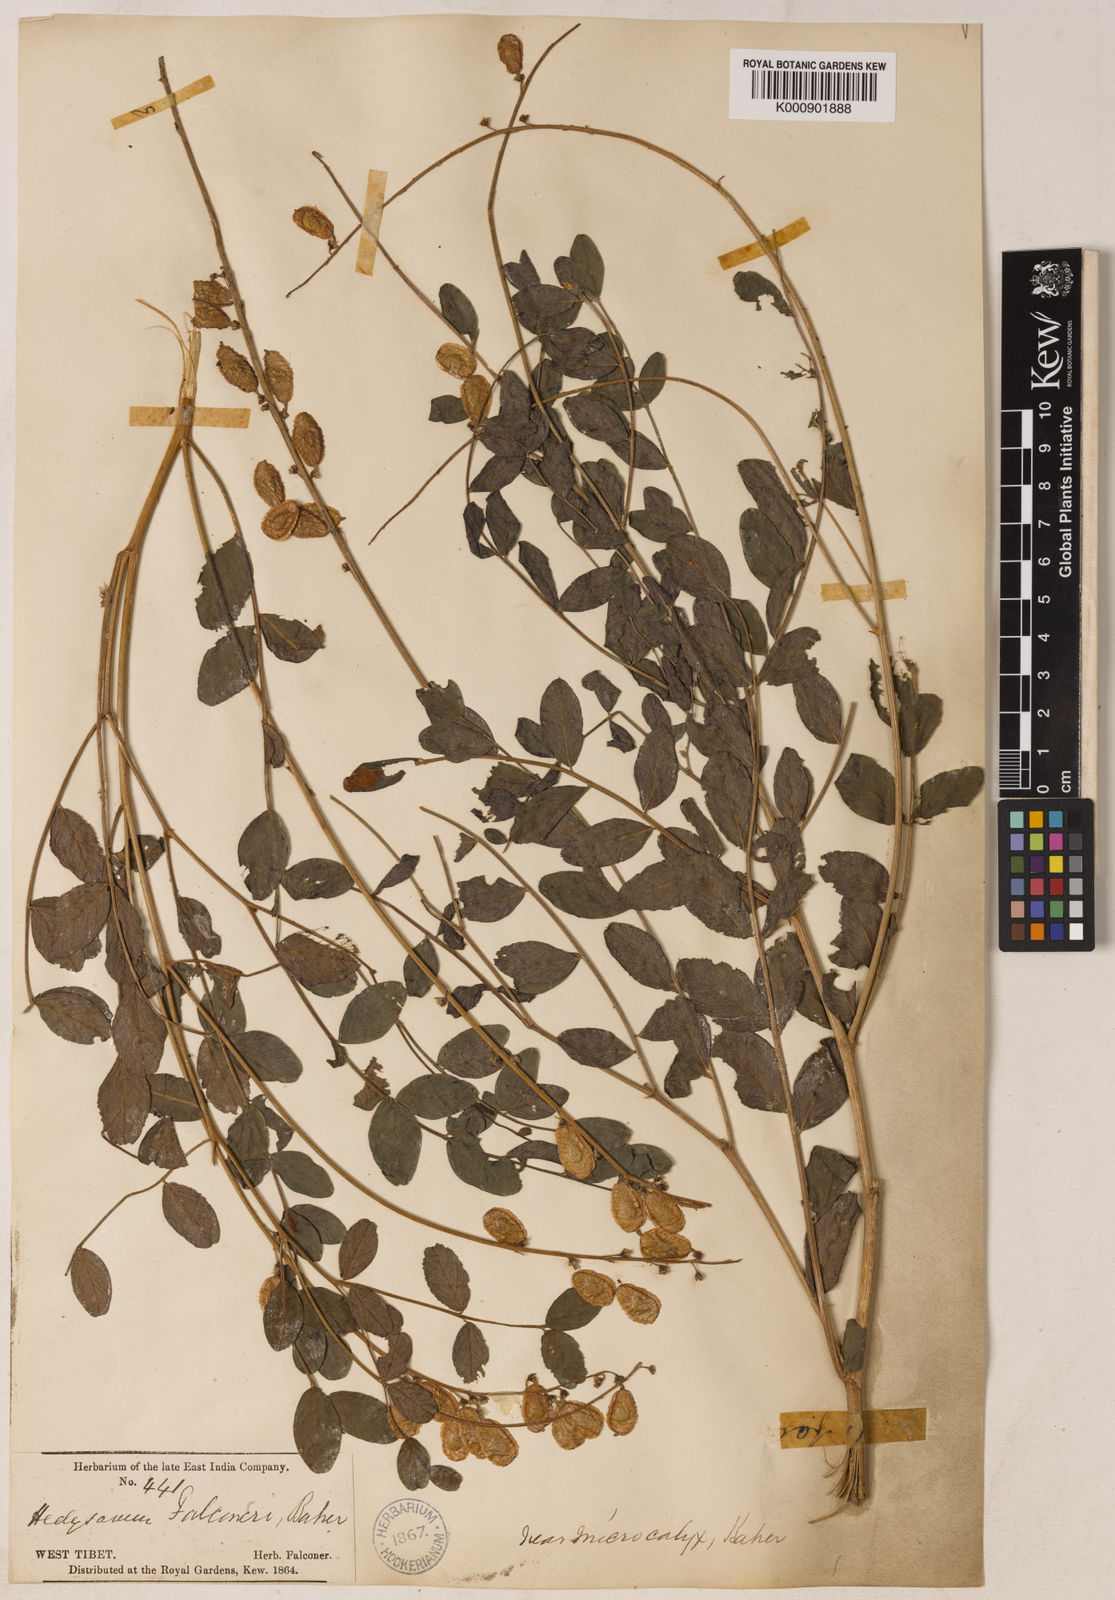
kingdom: Plantae
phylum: Tracheophyta
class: Magnoliopsida
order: Fabales
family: Fabaceae
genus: Hedysarum
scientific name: Hedysarum falconeri
